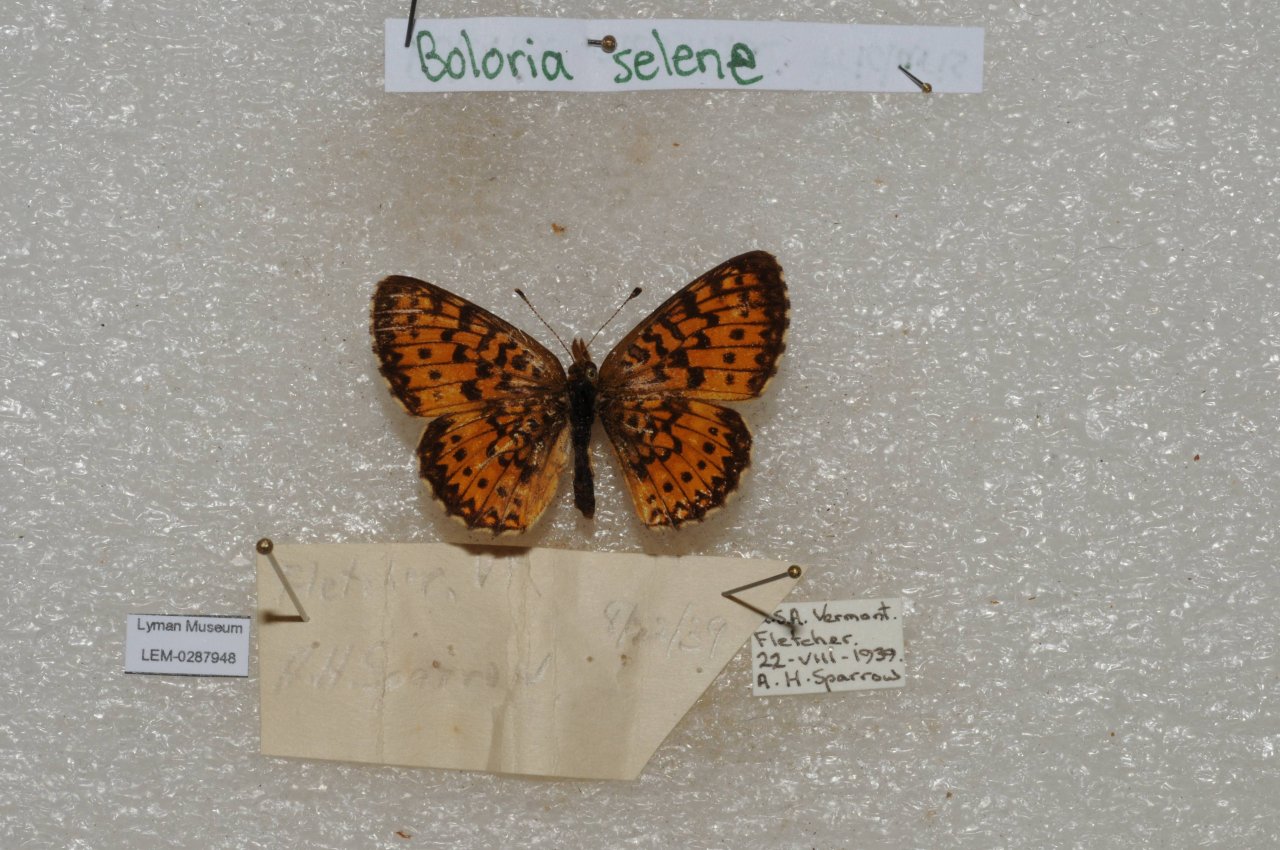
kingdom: Animalia
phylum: Arthropoda
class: Insecta
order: Lepidoptera
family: Nymphalidae
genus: Boloria
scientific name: Boloria selene
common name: Silver-bordered Fritillary
